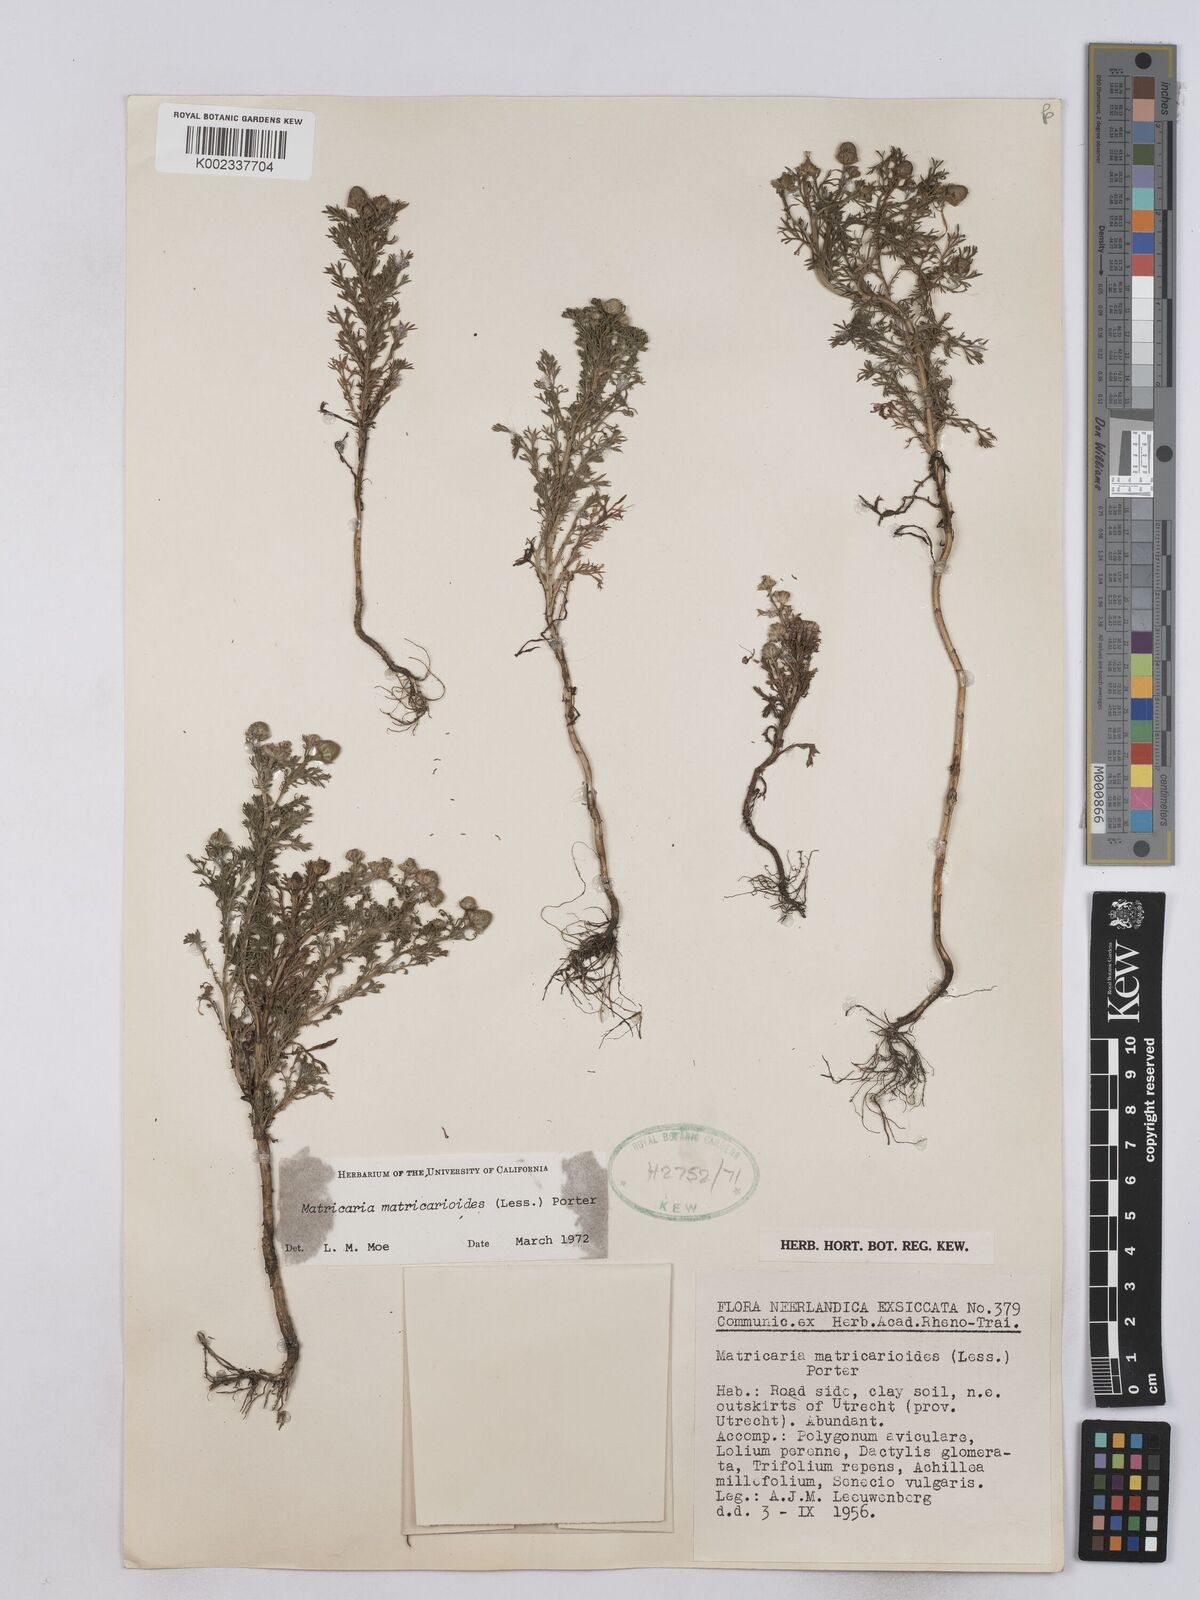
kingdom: Plantae
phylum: Tracheophyta
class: Magnoliopsida
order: Asterales
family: Asteraceae
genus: Matricaria
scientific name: Matricaria discoidea
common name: Disc mayweed
